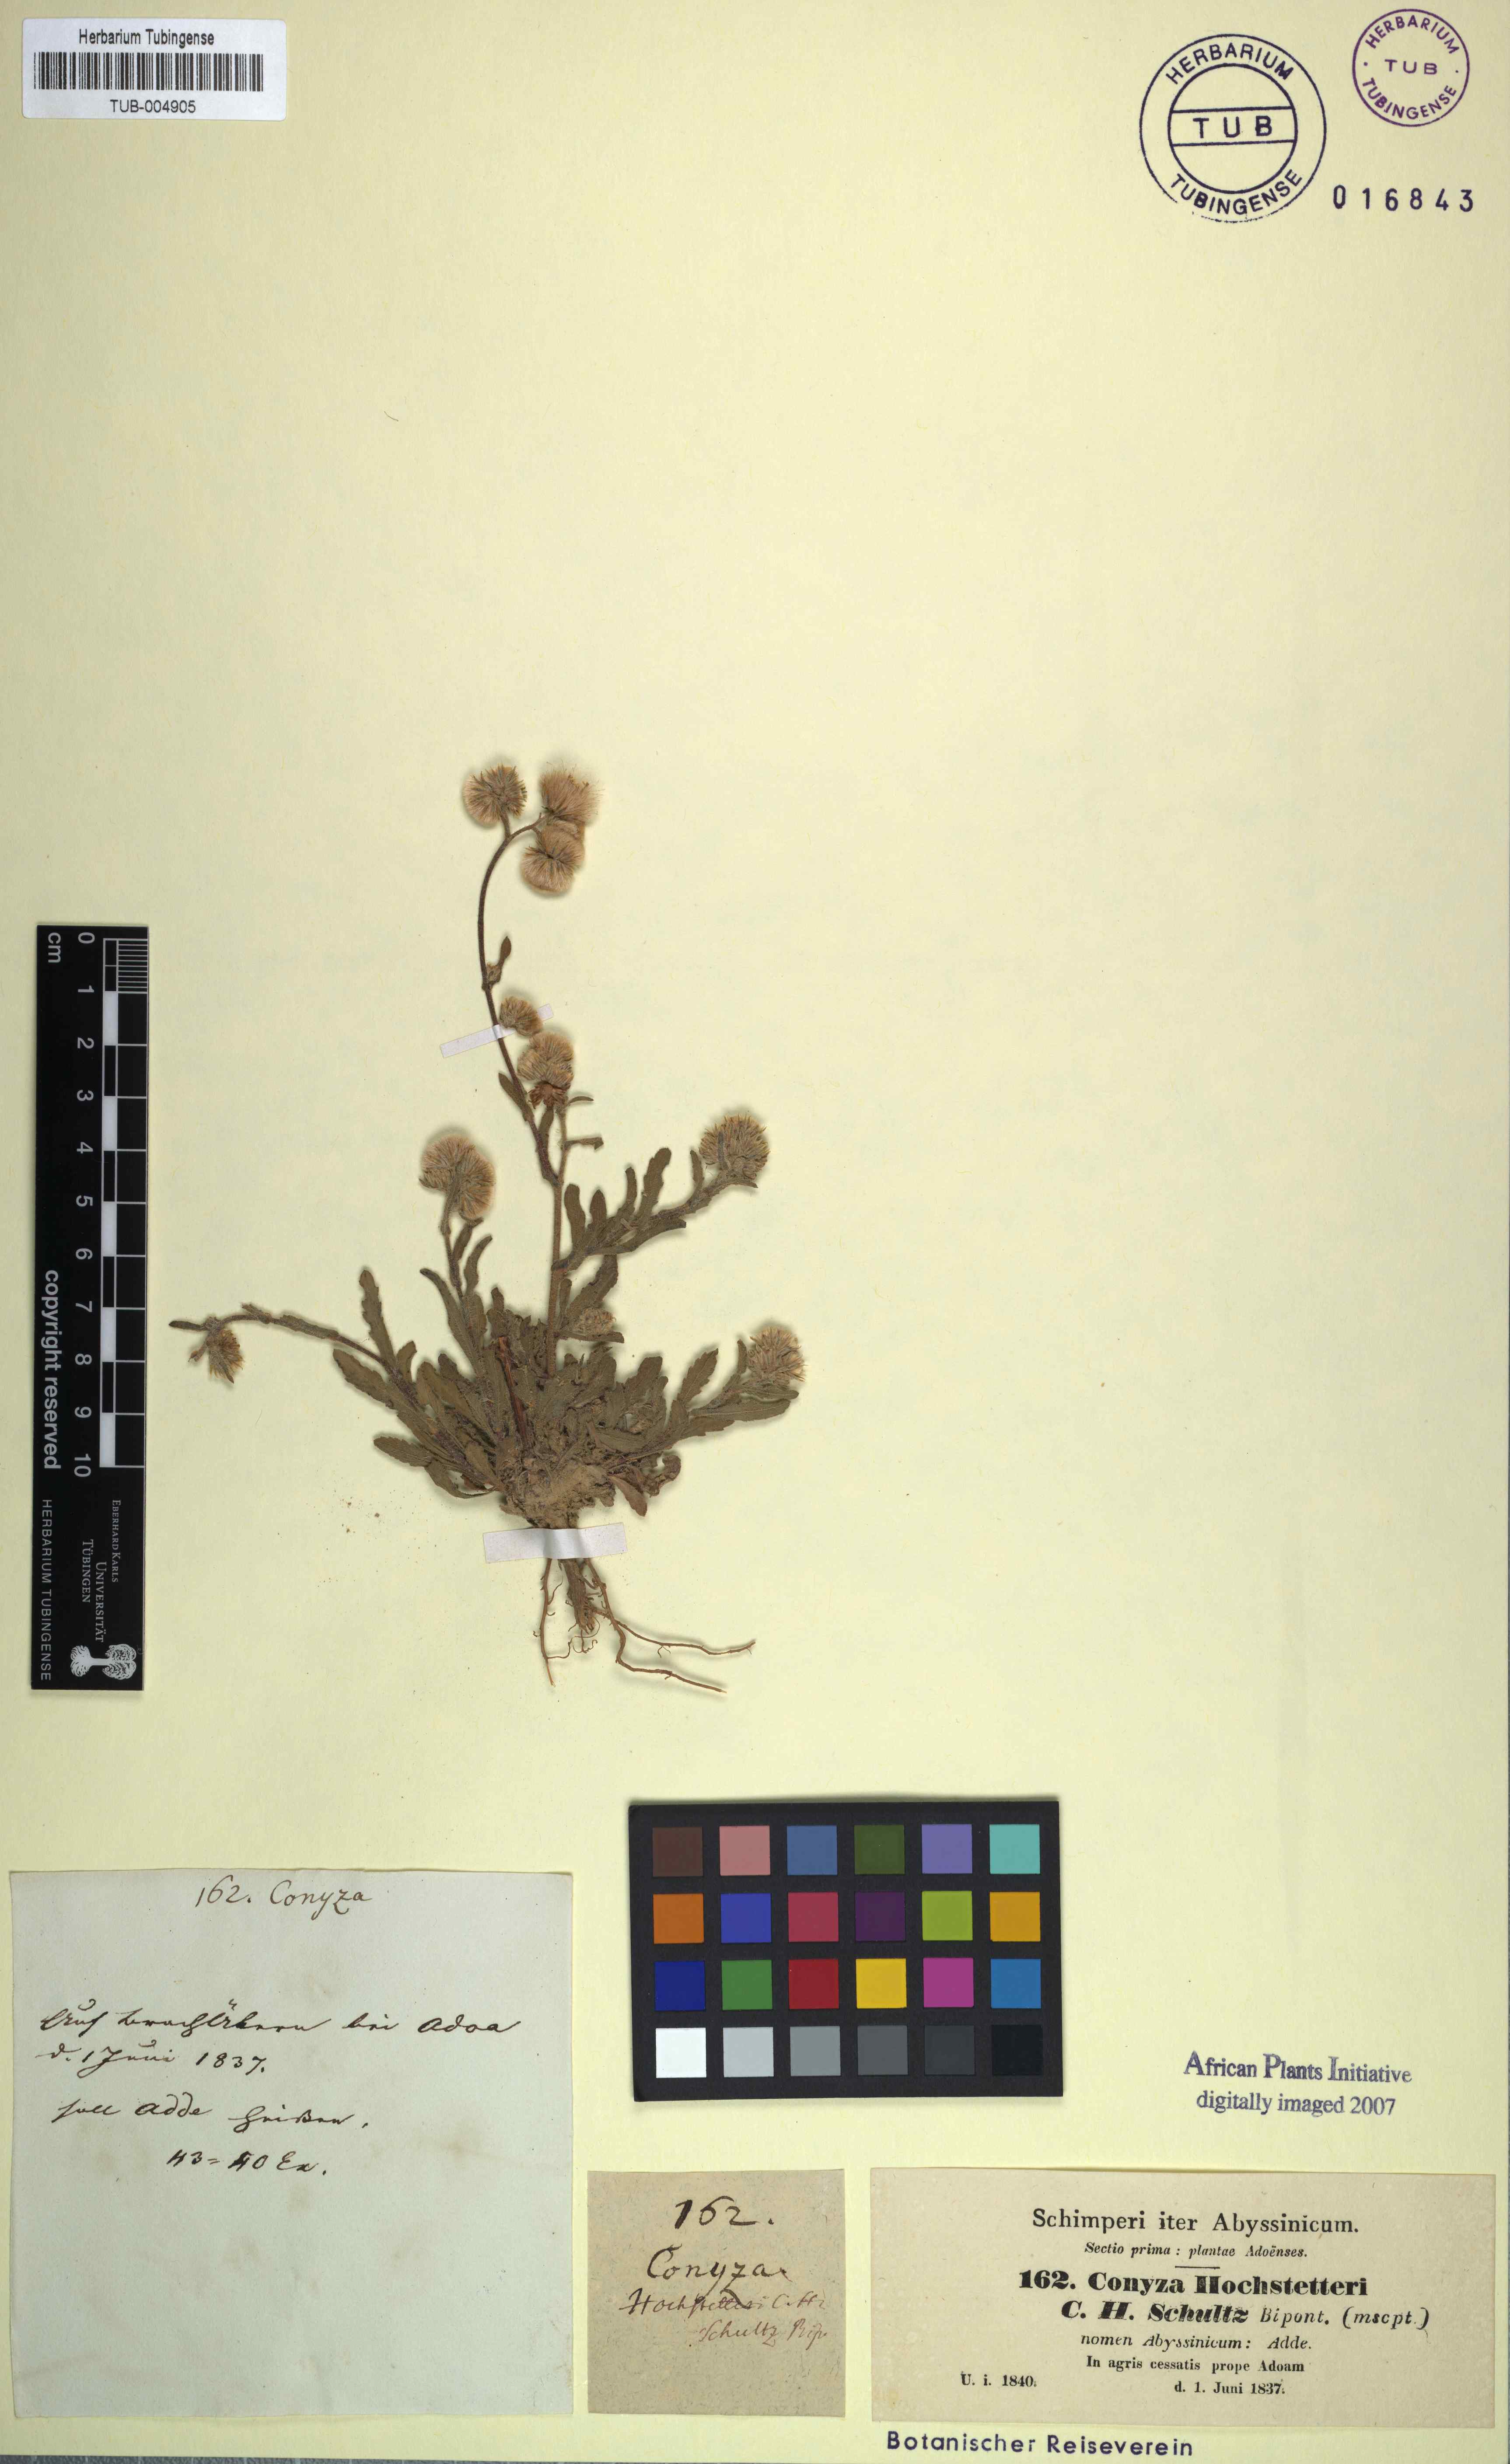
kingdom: Plantae
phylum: Tracheophyta
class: Magnoliopsida
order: Asterales
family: Asteraceae
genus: Eschenbachia
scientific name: Eschenbachia gouanii
